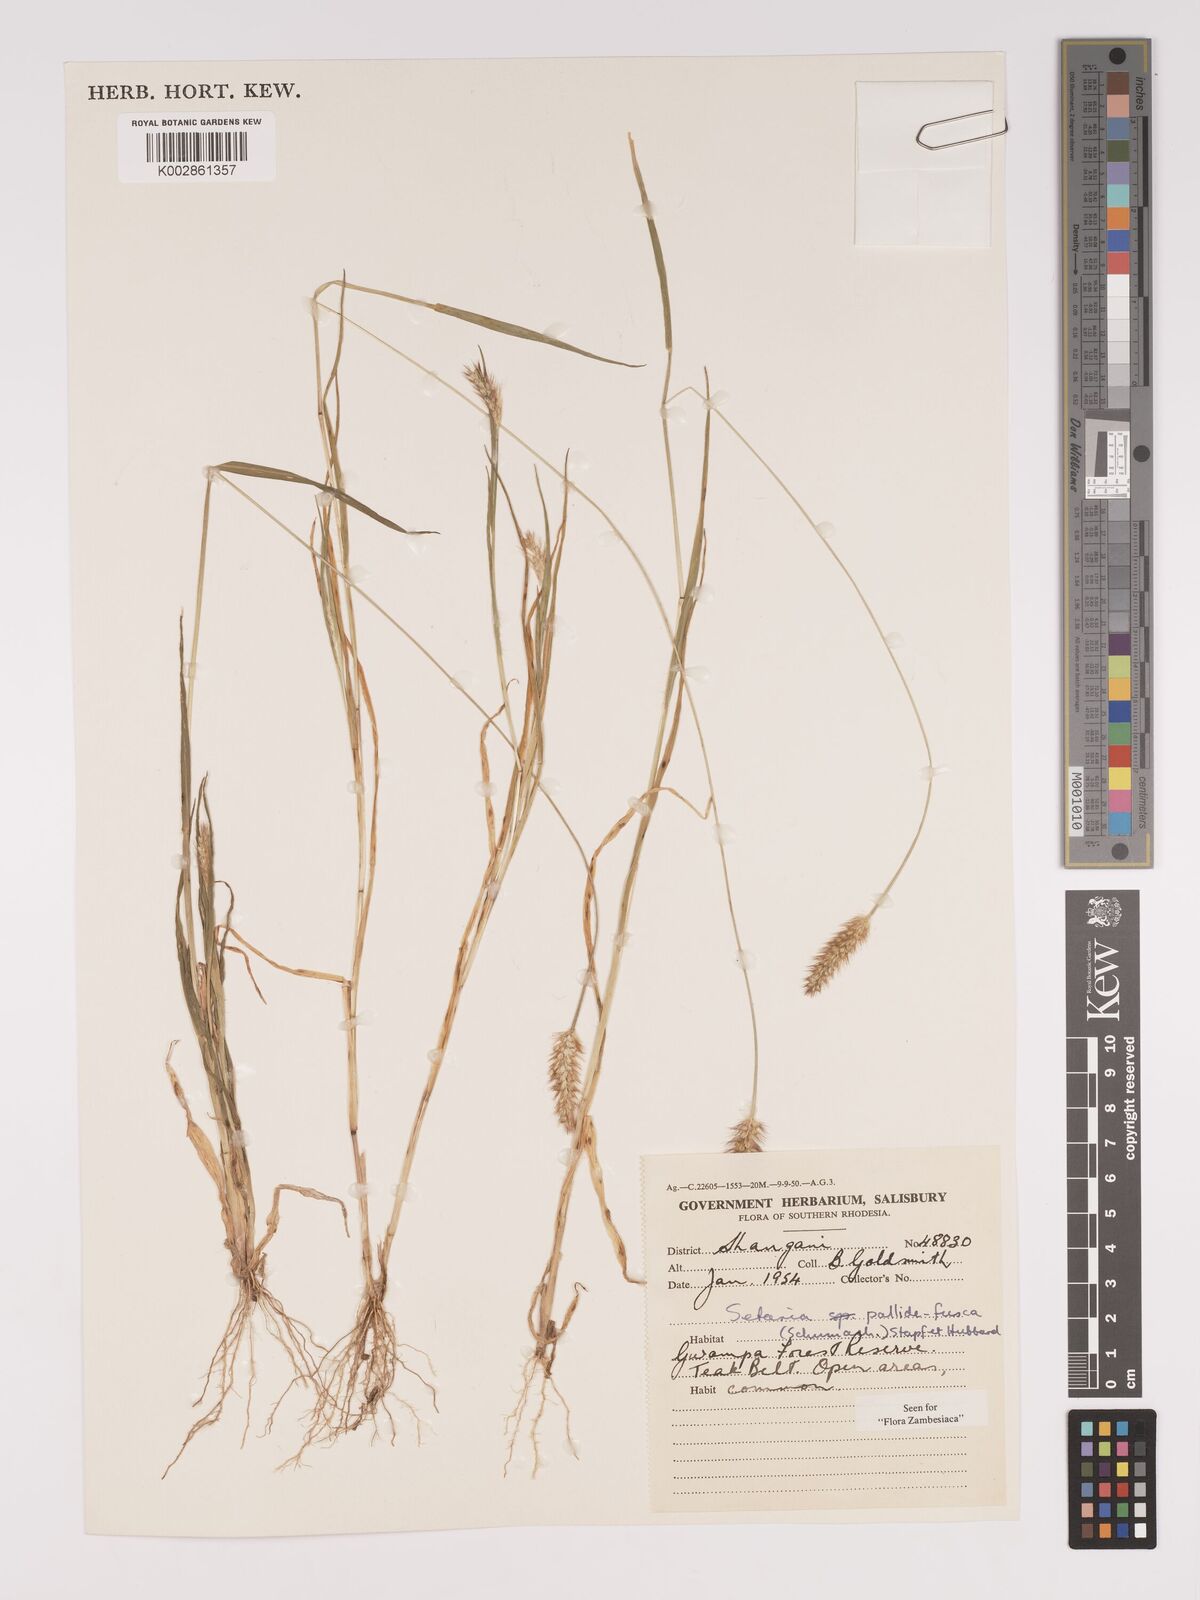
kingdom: Plantae
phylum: Tracheophyta
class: Liliopsida
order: Poales
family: Poaceae
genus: Setaria
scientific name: Setaria pumila
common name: Yellow bristle-grass
